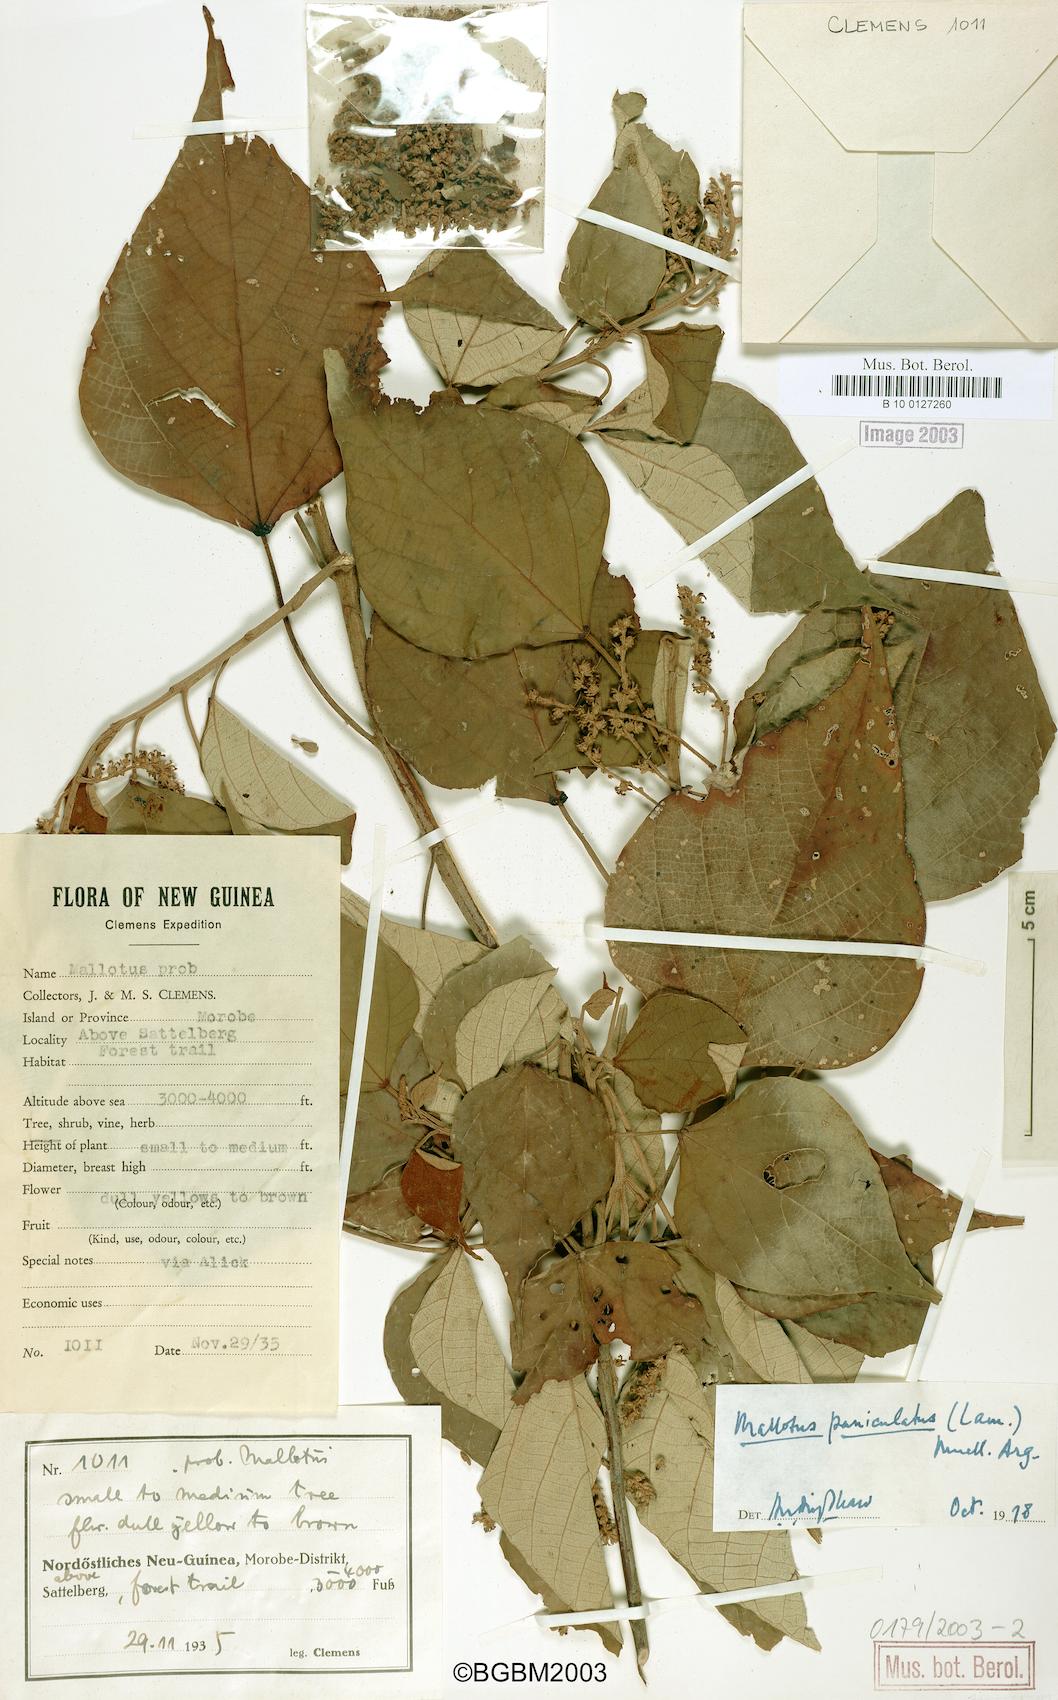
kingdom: Plantae
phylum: Tracheophyta
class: Magnoliopsida
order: Malpighiales
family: Euphorbiaceae
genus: Mallotus
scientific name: Mallotus paniculatus
